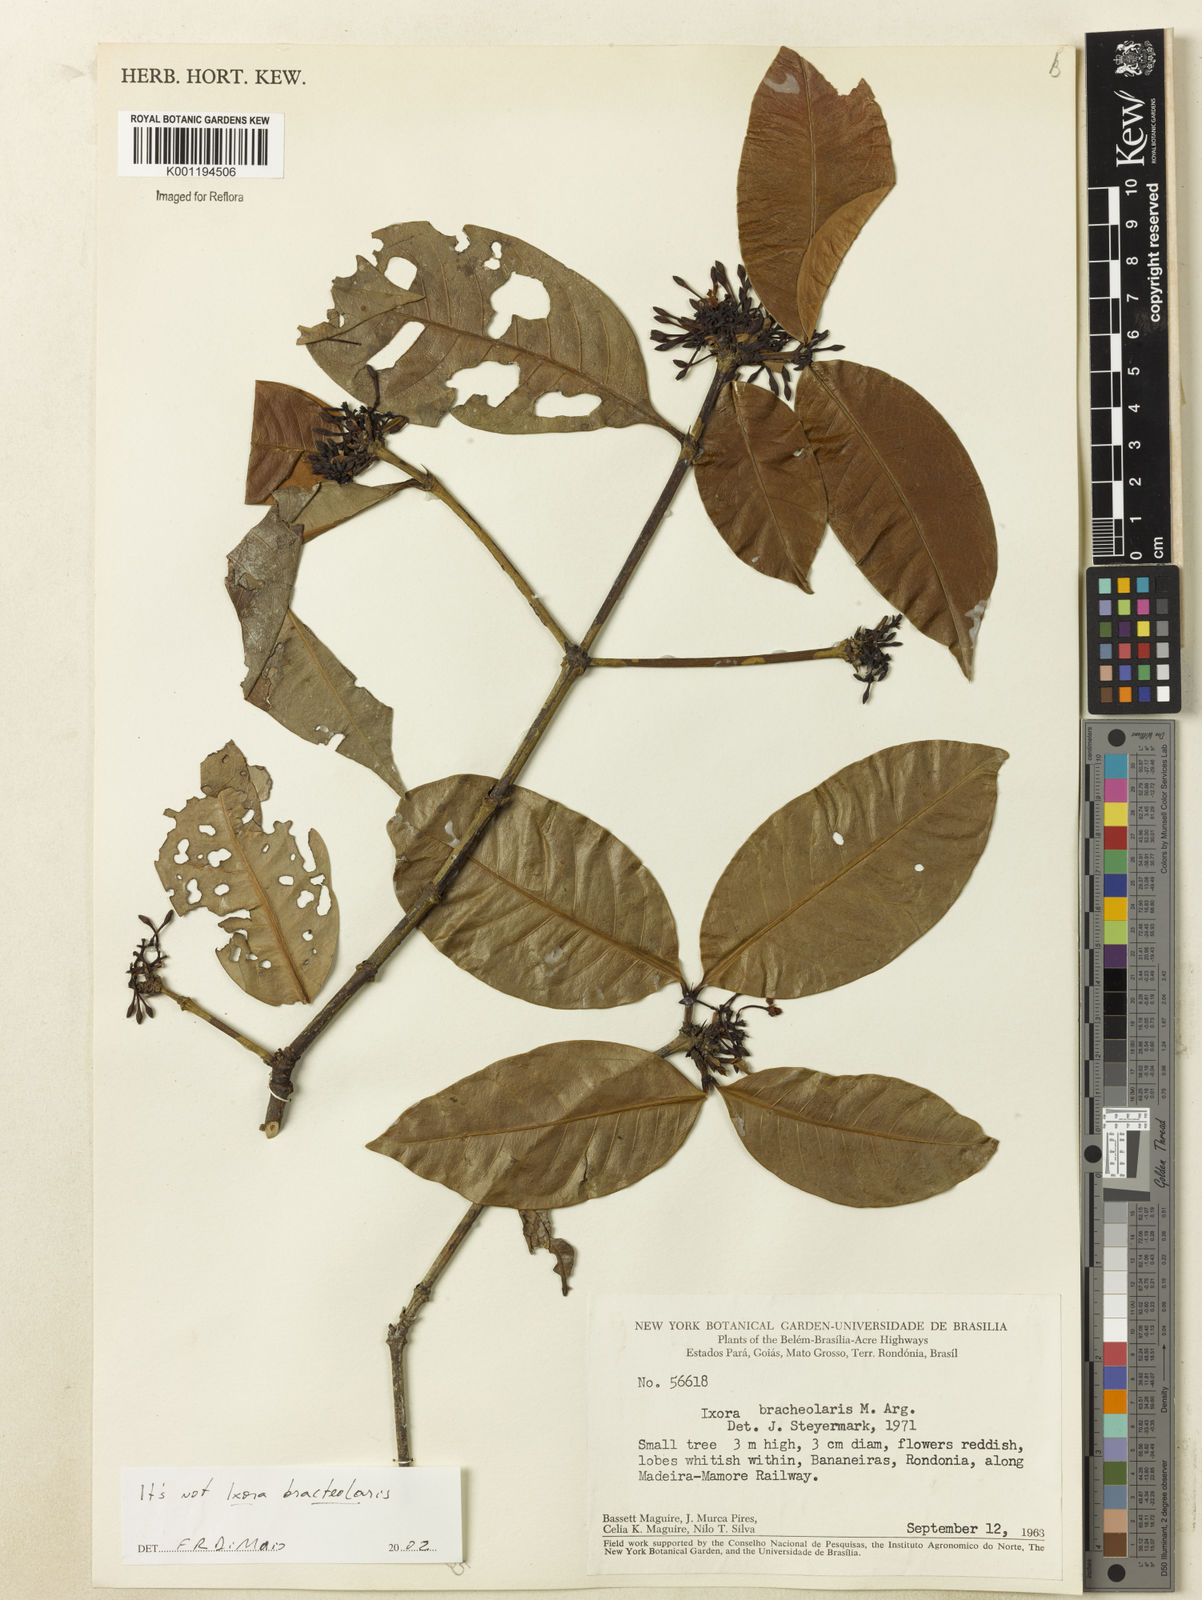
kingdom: Plantae
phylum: Tracheophyta
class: Magnoliopsida
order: Gentianales
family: Rubiaceae
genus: Ixora
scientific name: Ixora
